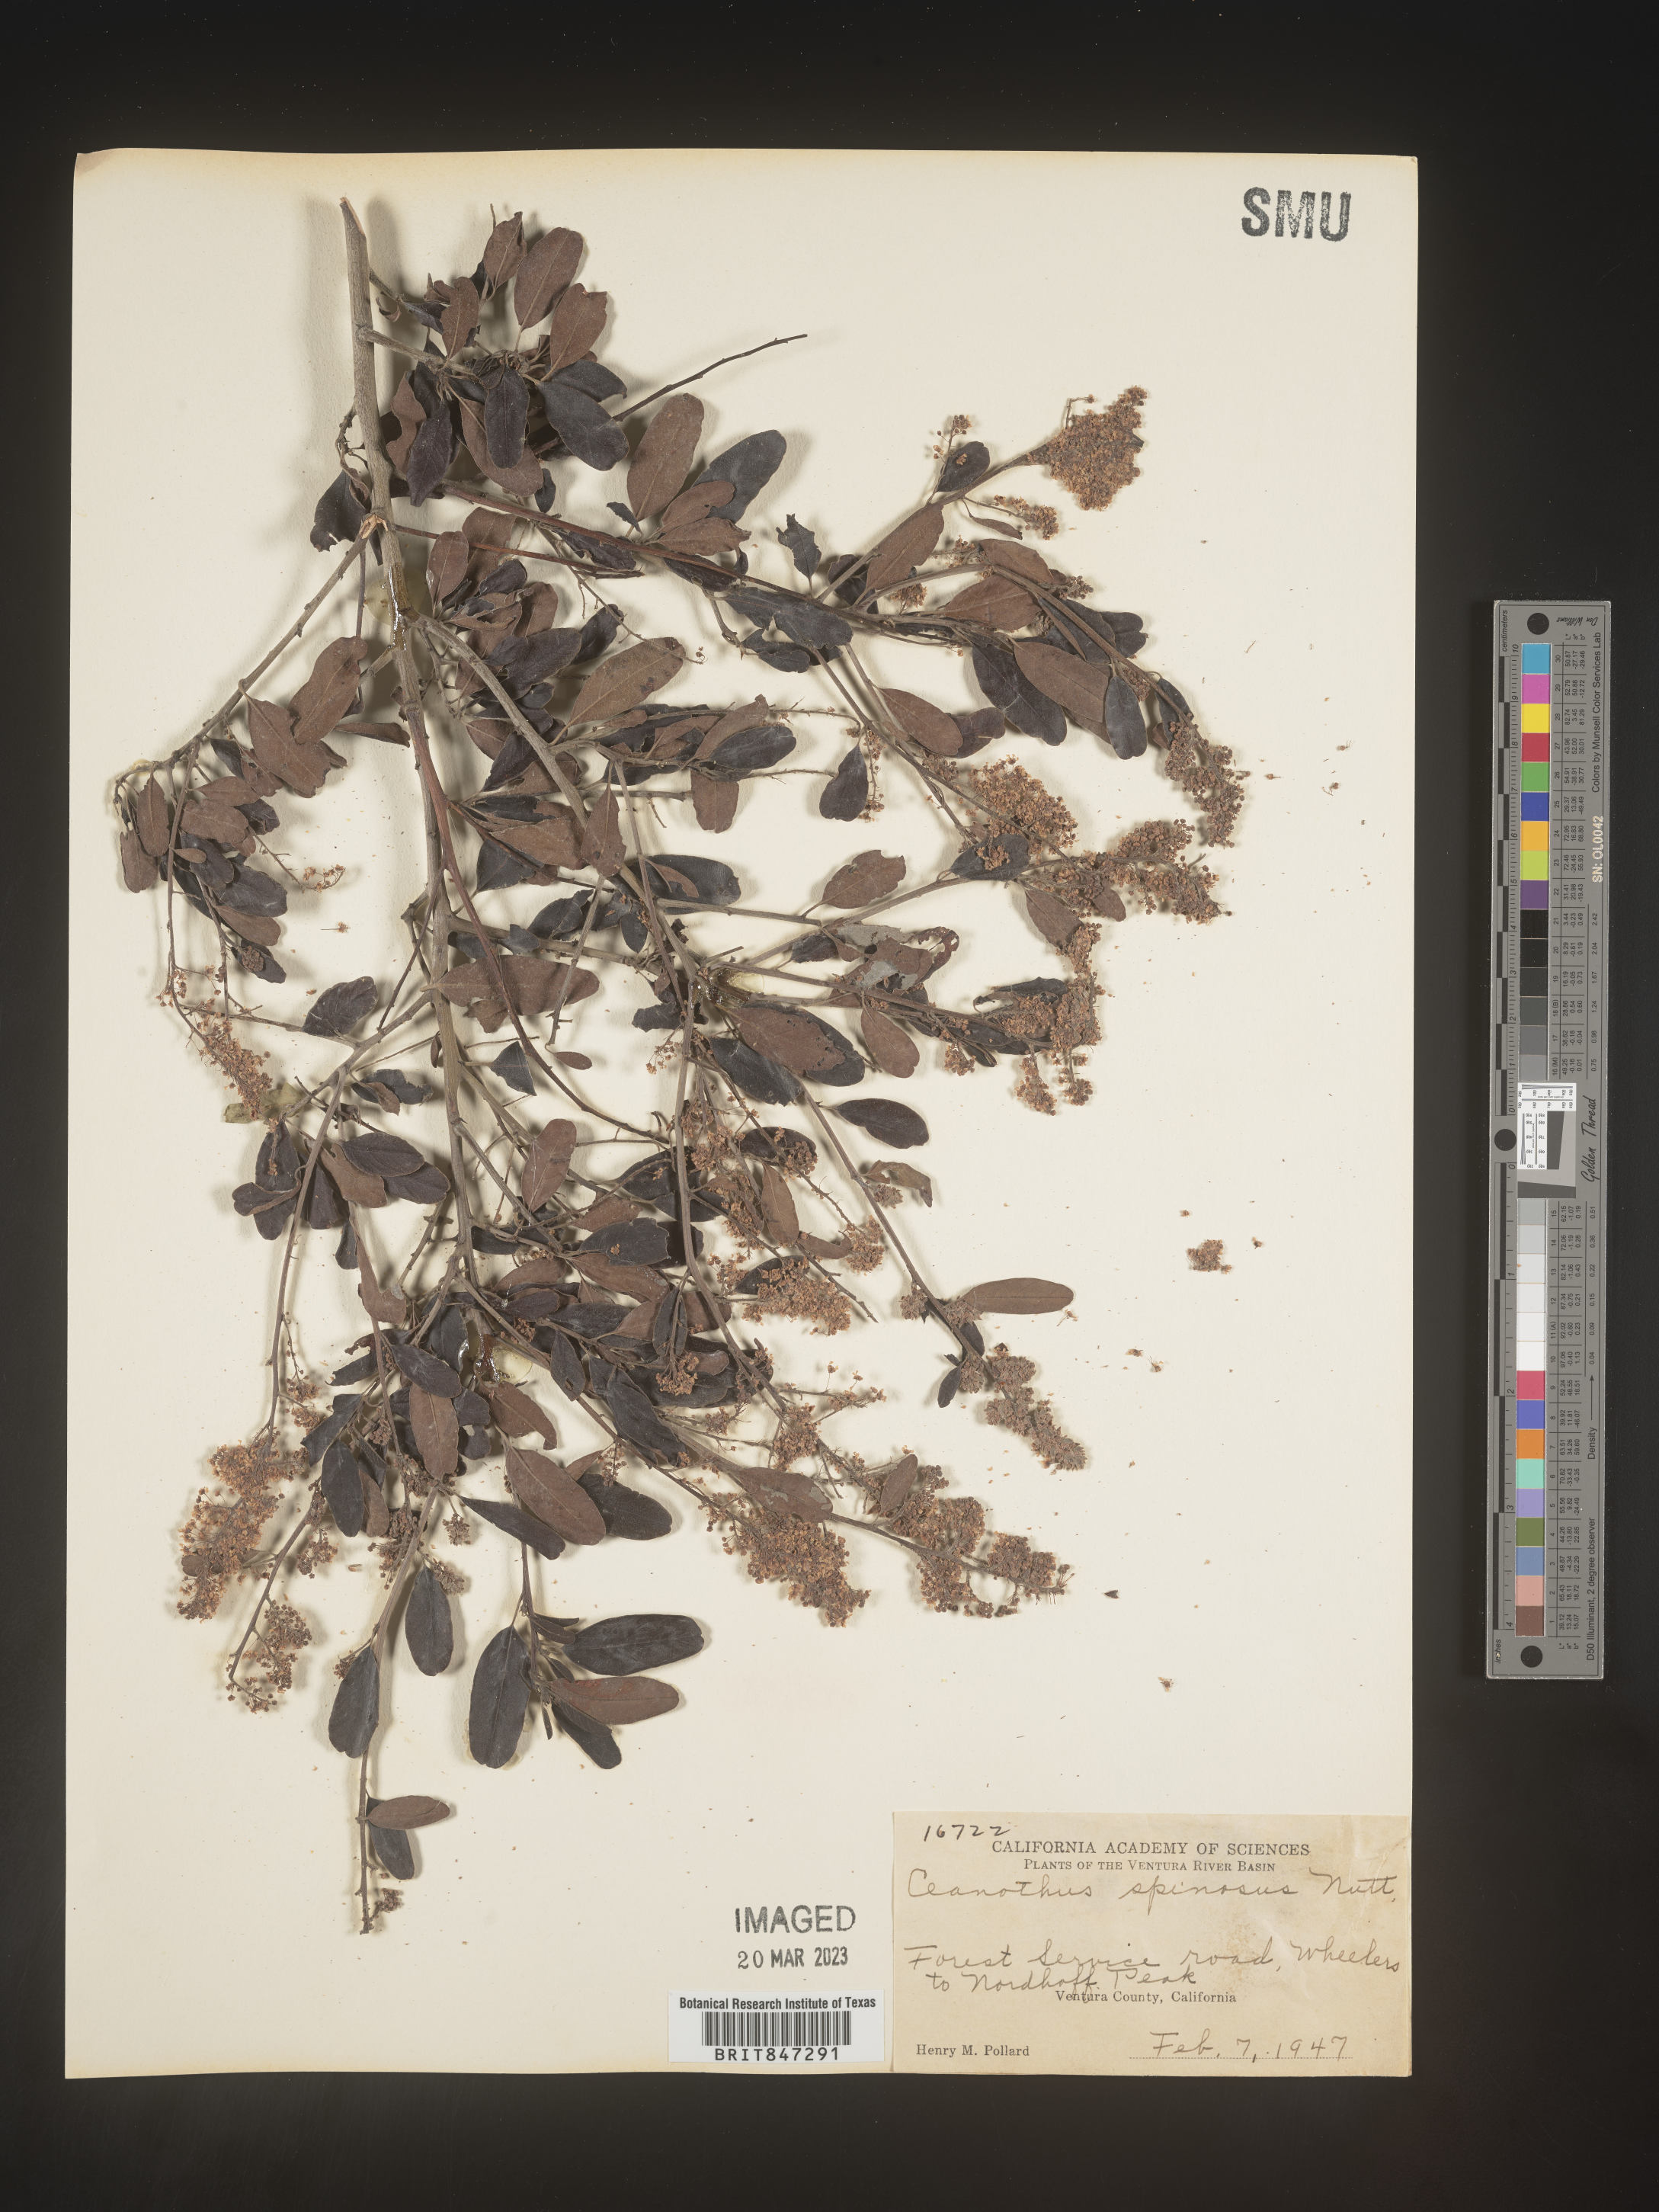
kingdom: Plantae
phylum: Tracheophyta
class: Magnoliopsida
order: Rosales
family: Rhamnaceae
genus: Ceanothus
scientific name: Ceanothus
